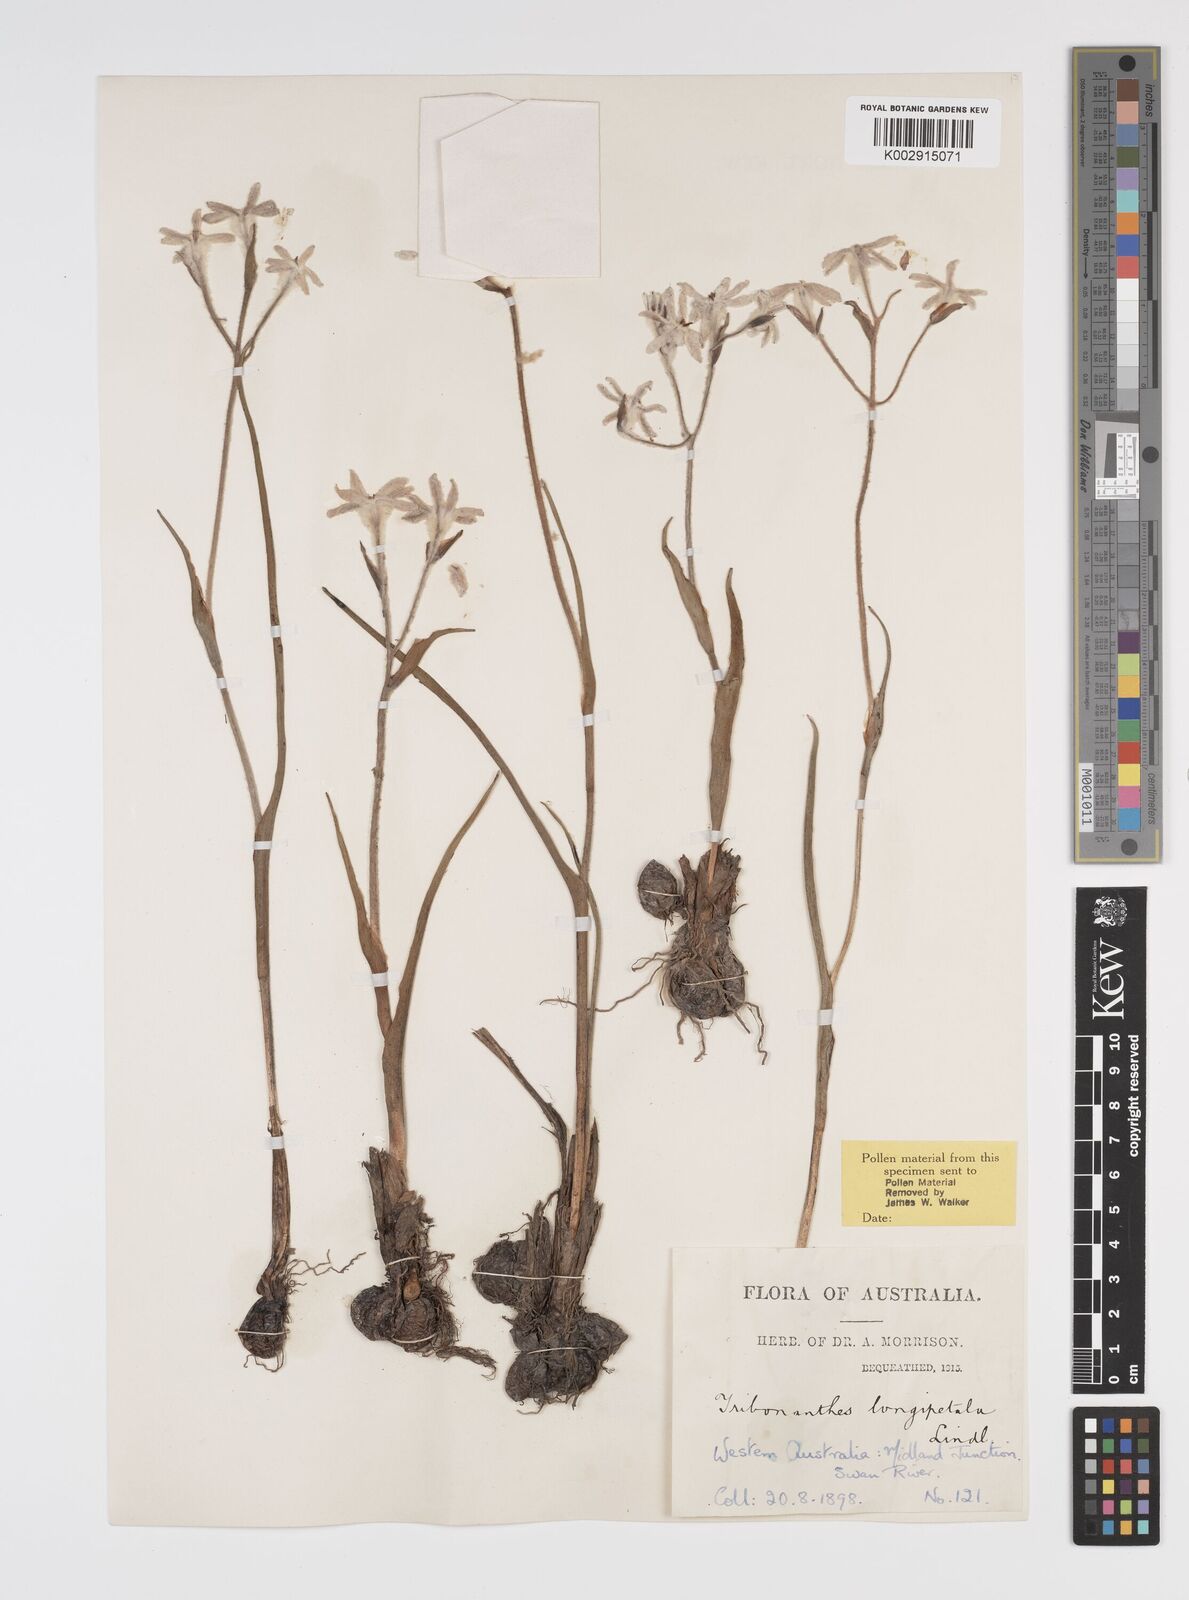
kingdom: Plantae
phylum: Tracheophyta
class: Liliopsida
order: Commelinales
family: Haemodoraceae
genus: Tribonanthes
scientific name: Tribonanthes longipetala
